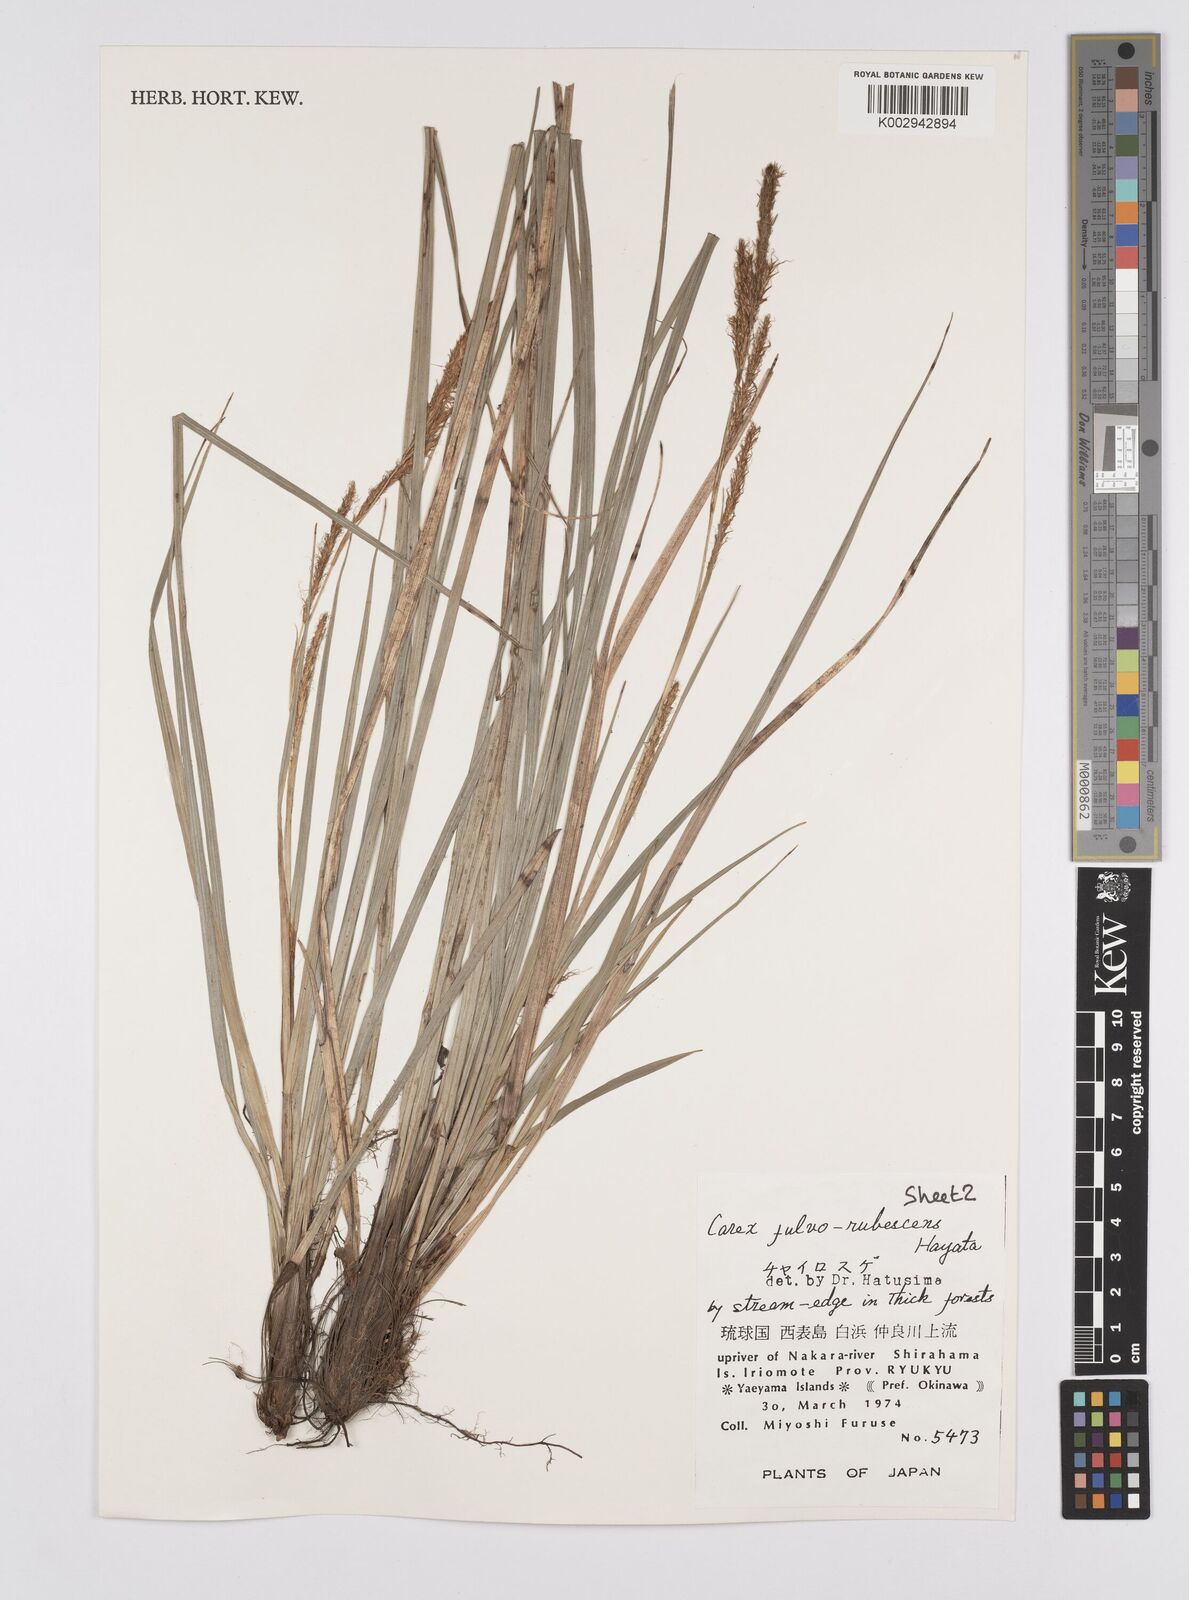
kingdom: Plantae
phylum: Tracheophyta
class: Liliopsida
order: Poales
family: Cyperaceae
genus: Carex
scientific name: Carex fulvorubescens
